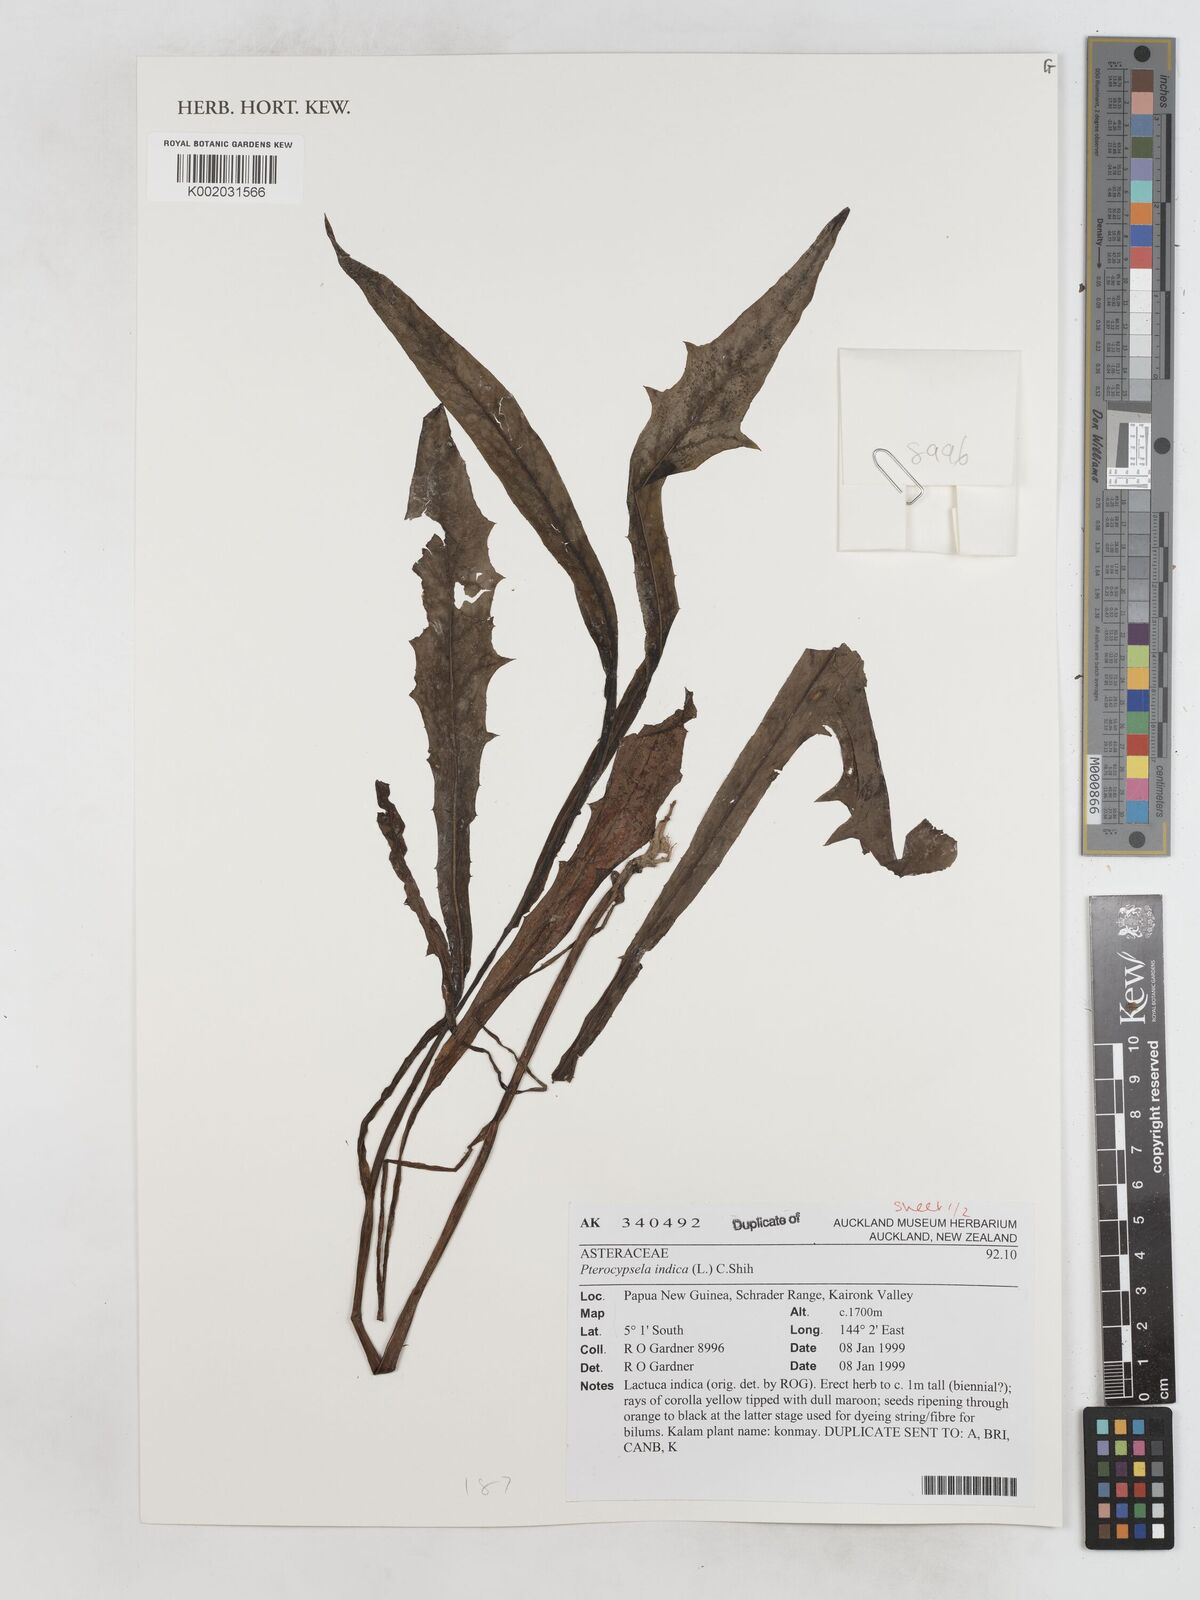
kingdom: Plantae
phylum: Tracheophyta
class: Magnoliopsida
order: Asterales
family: Asteraceae
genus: Lactuca
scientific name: Lactuca indica
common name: Wild lettuce
